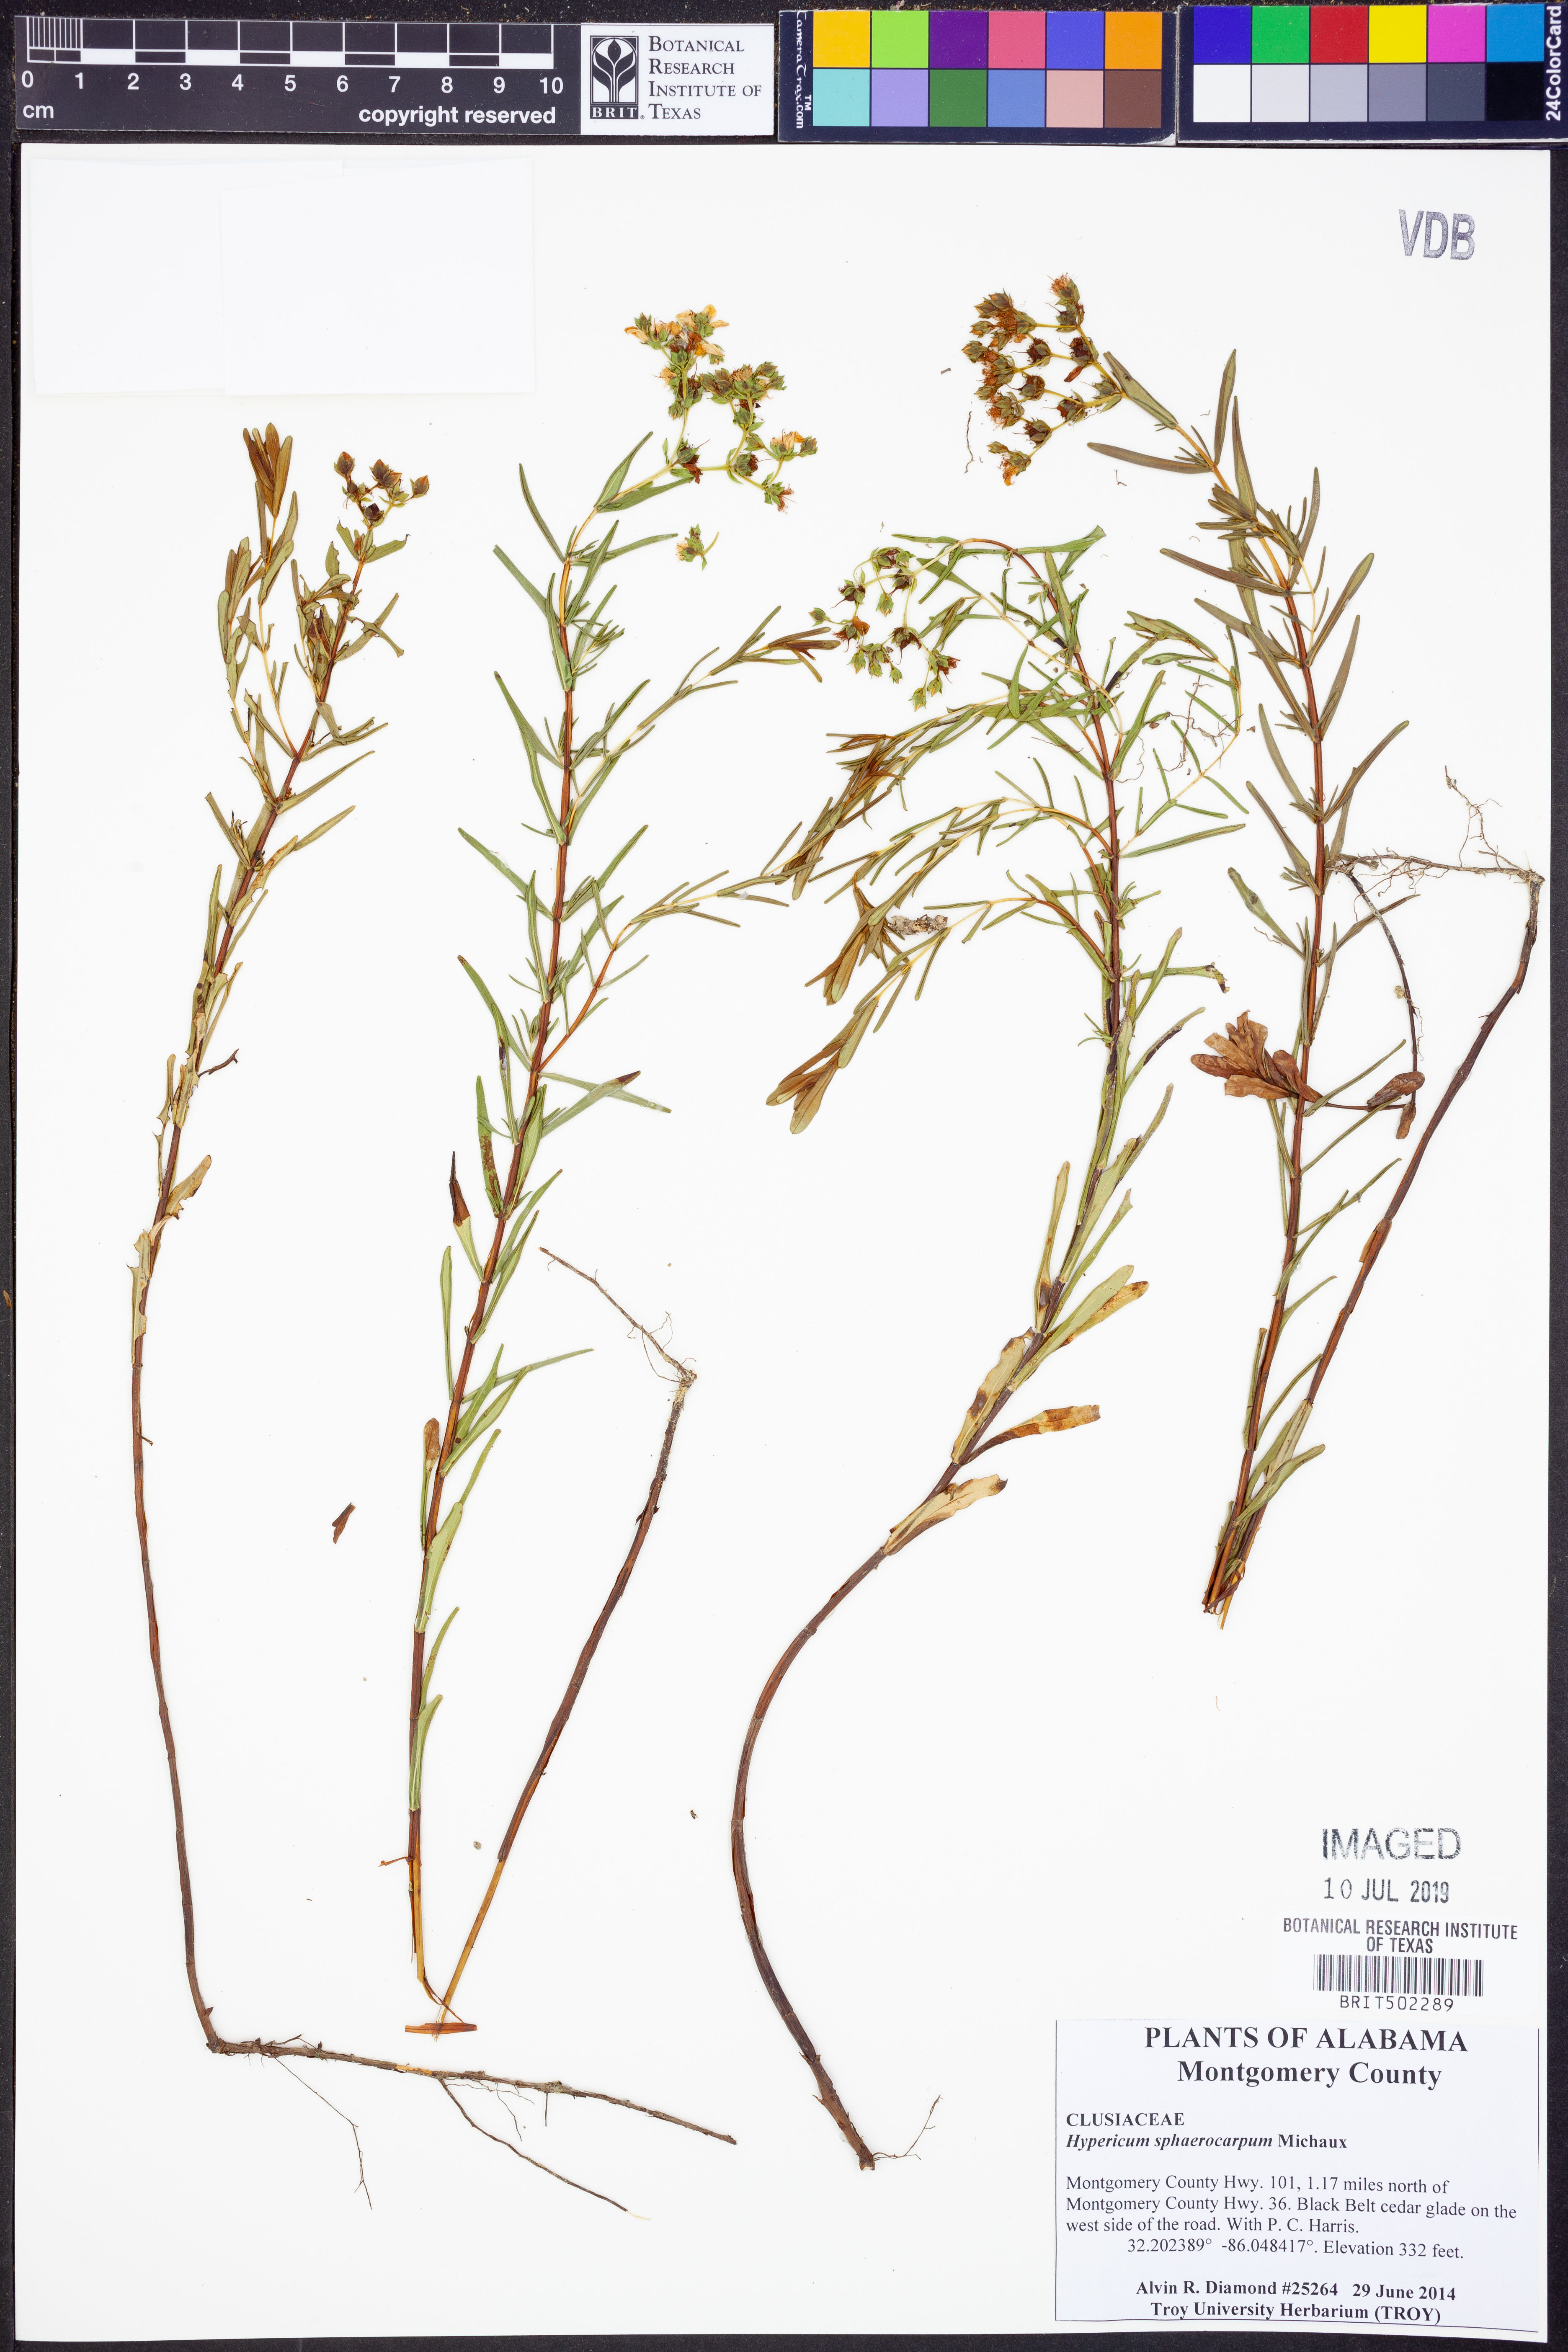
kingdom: Plantae
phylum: Tracheophyta
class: Magnoliopsida
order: Malpighiales
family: Hypericaceae
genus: Hypericum
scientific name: Hypericum sphaerocarpum
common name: Round-fruited st. john's-wort
